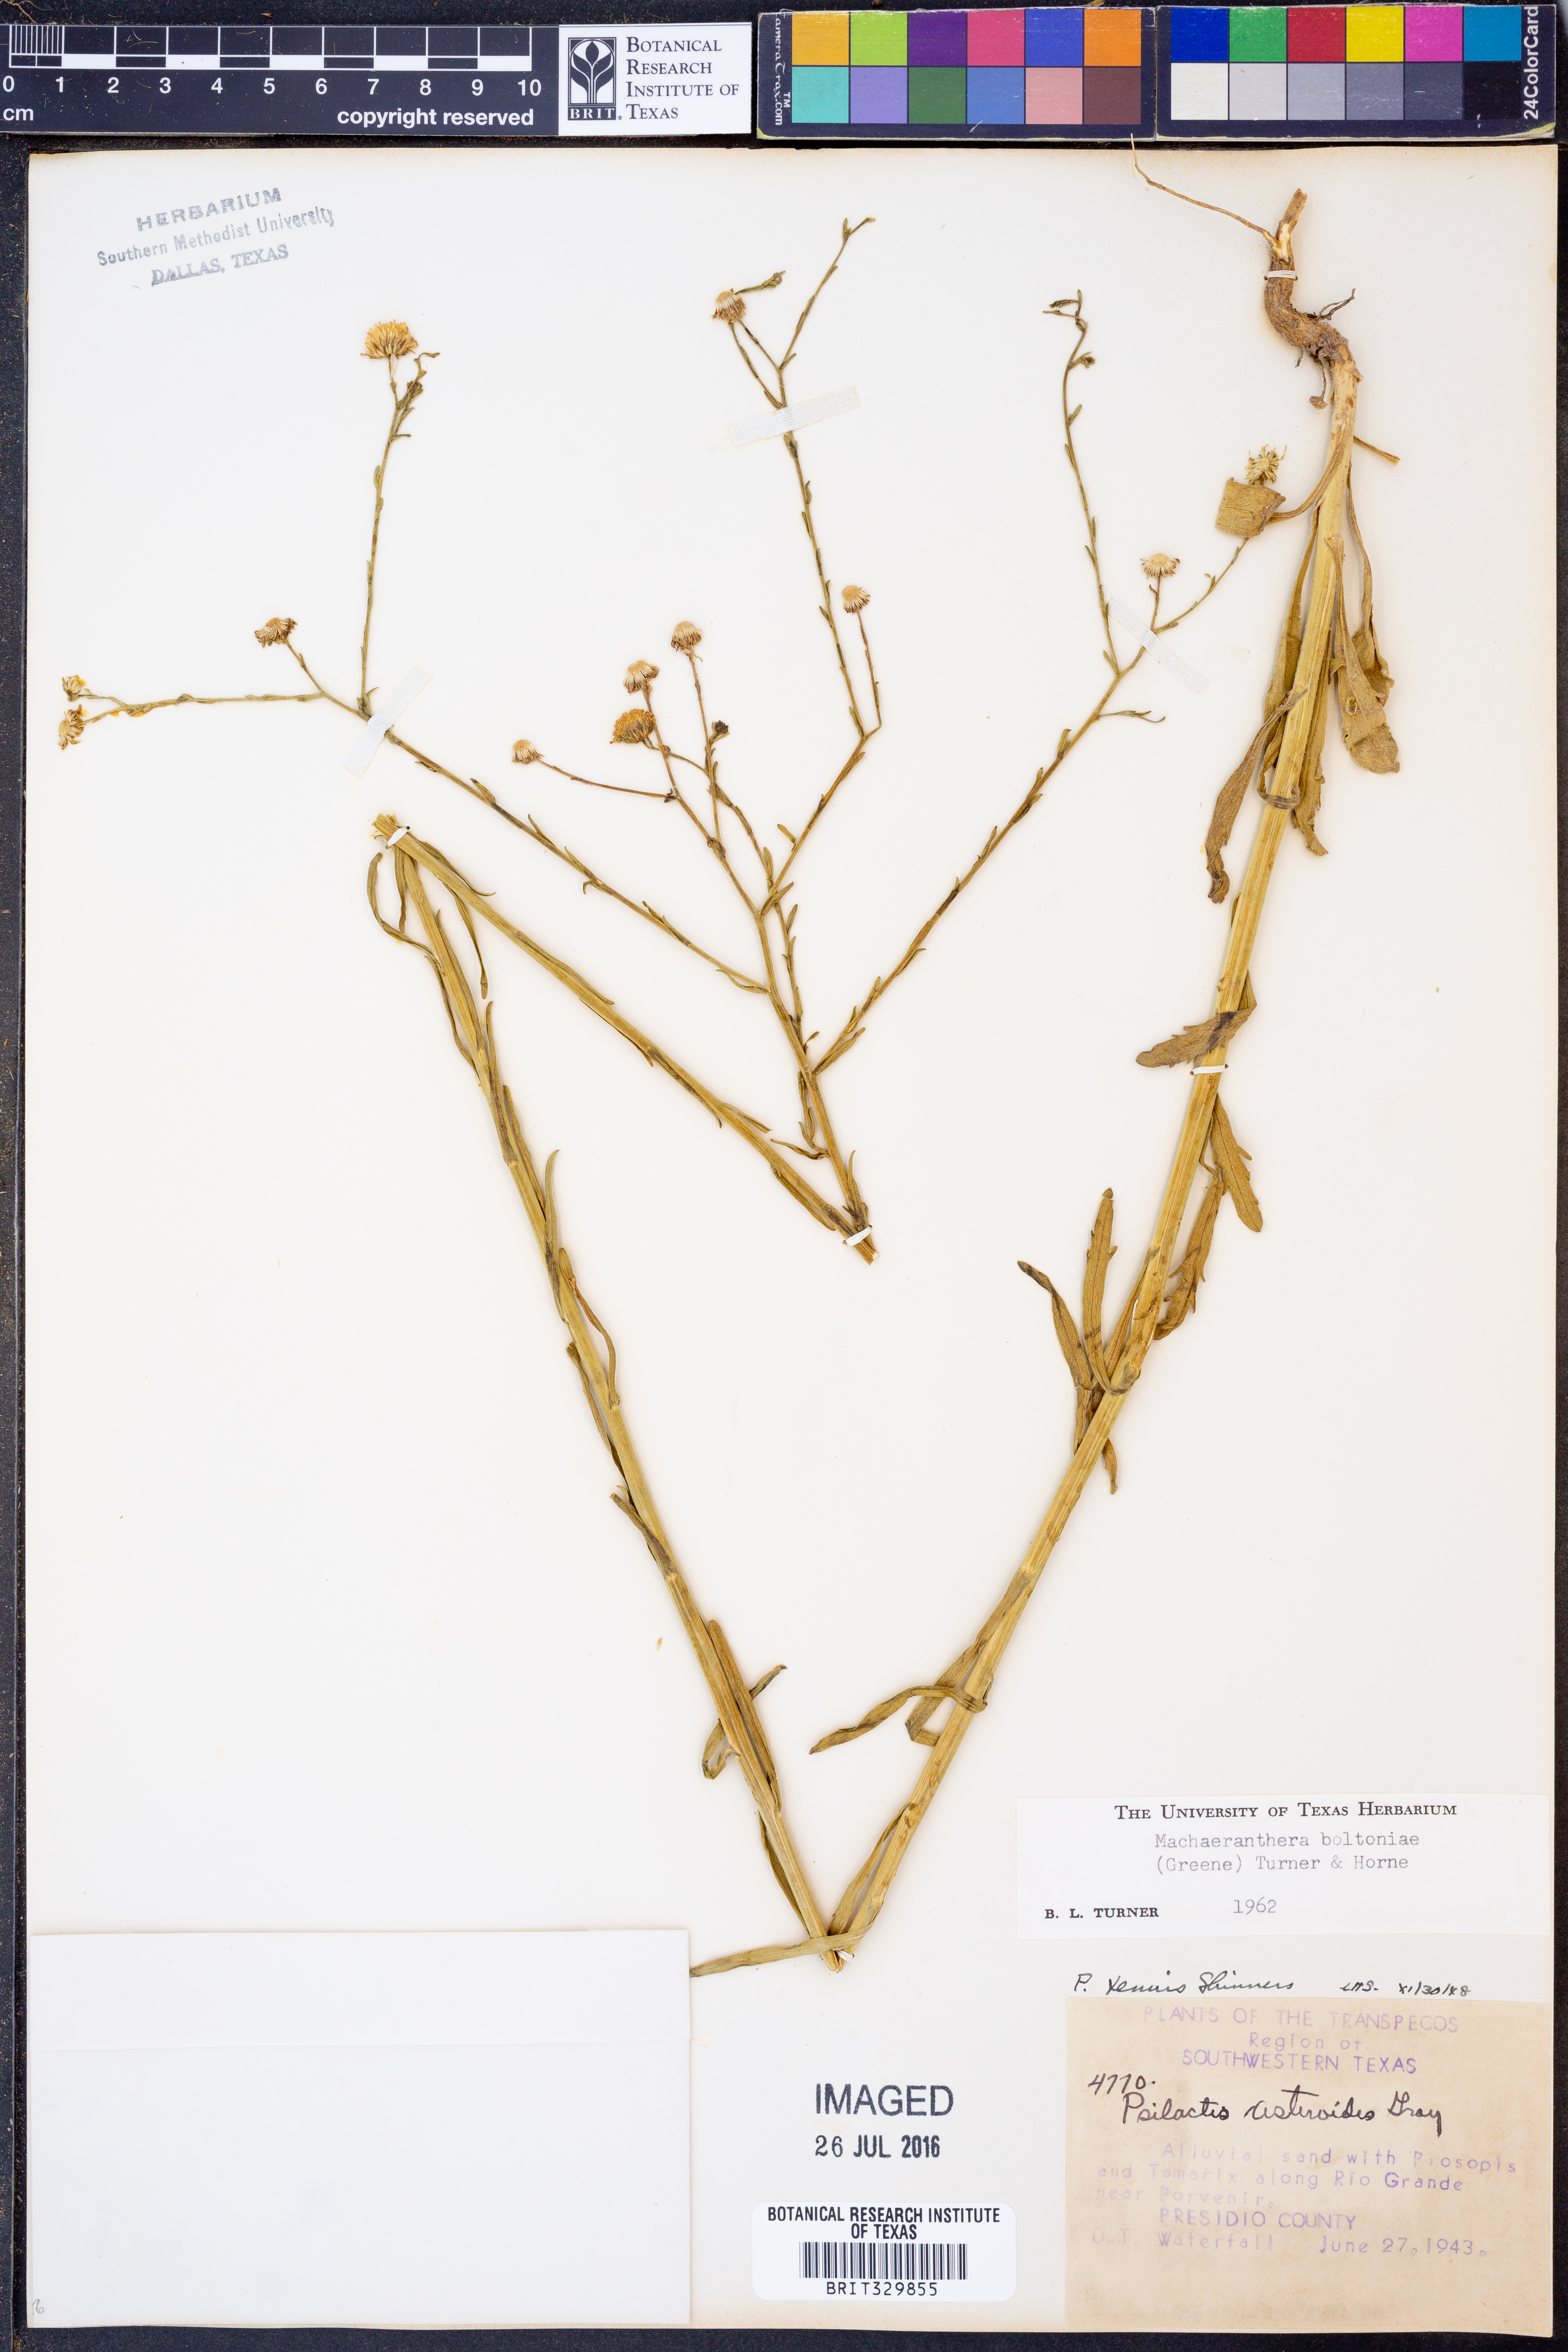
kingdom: Plantae
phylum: Tracheophyta
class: Magnoliopsida
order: Asterales
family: Asteraceae
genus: Psilactis
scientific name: Psilactis asteroides
